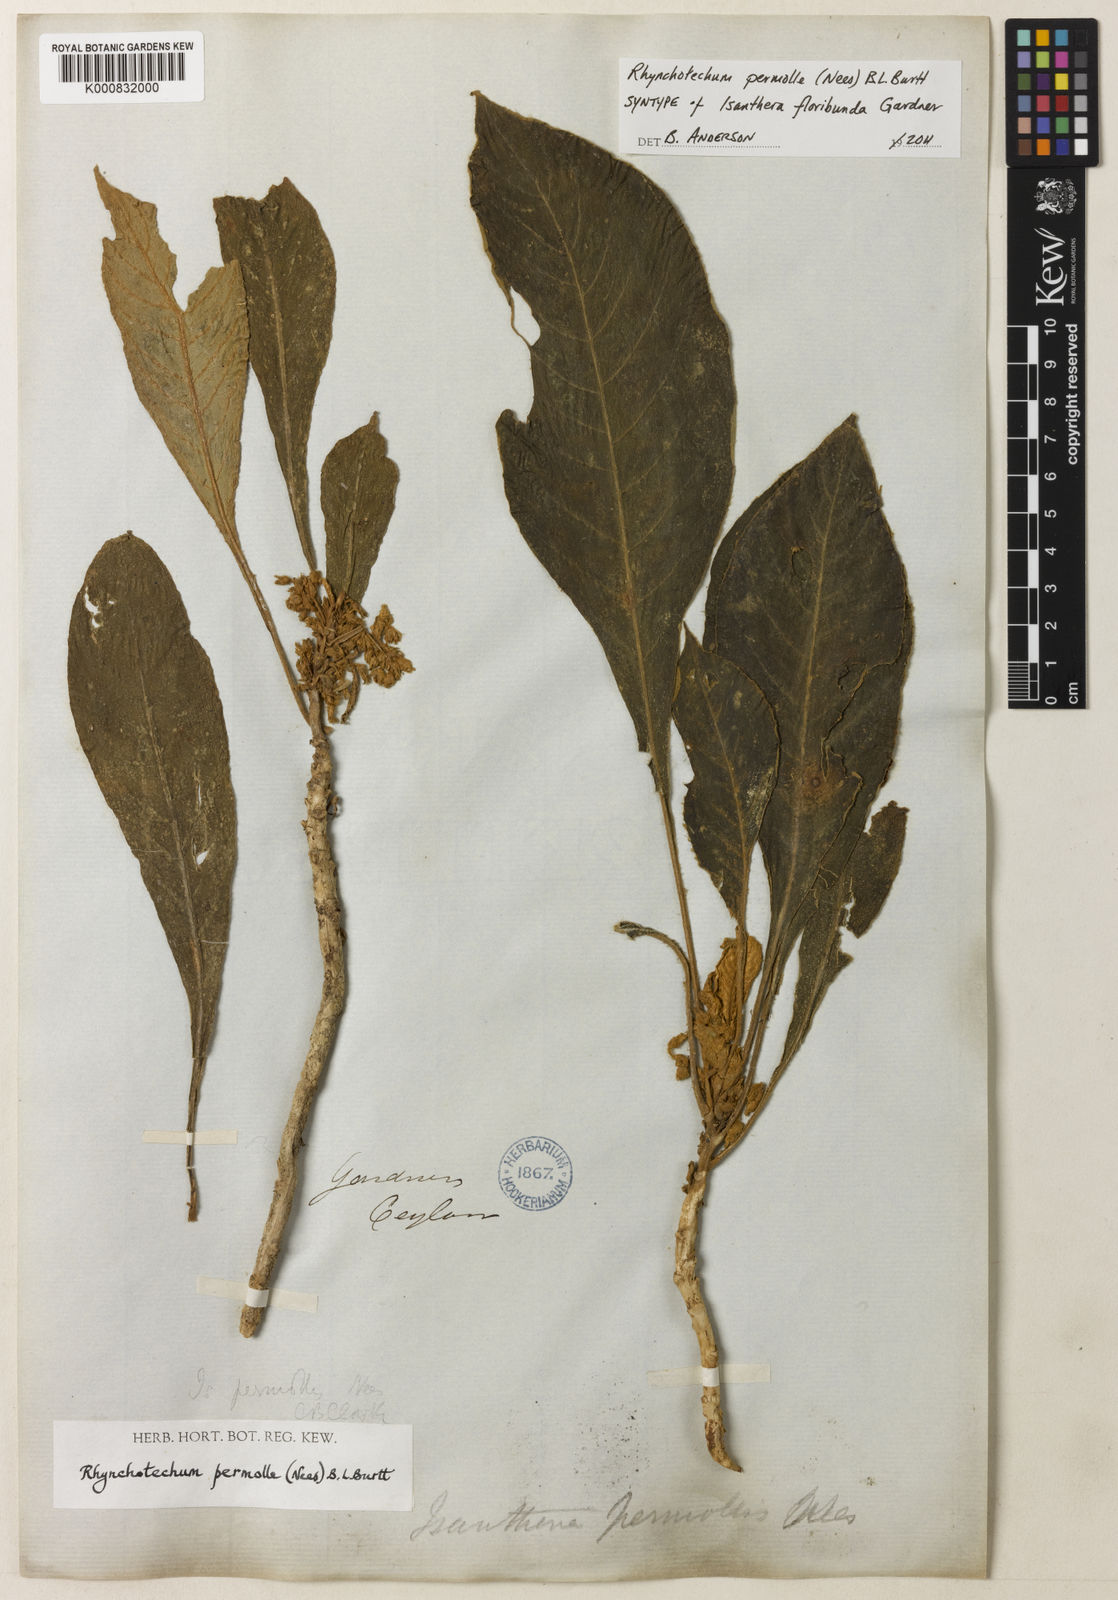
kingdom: Plantae
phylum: Tracheophyta
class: Magnoliopsida
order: Lamiales
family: Gesneriaceae
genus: Rhynchotechum
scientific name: Rhynchotechum permolle
